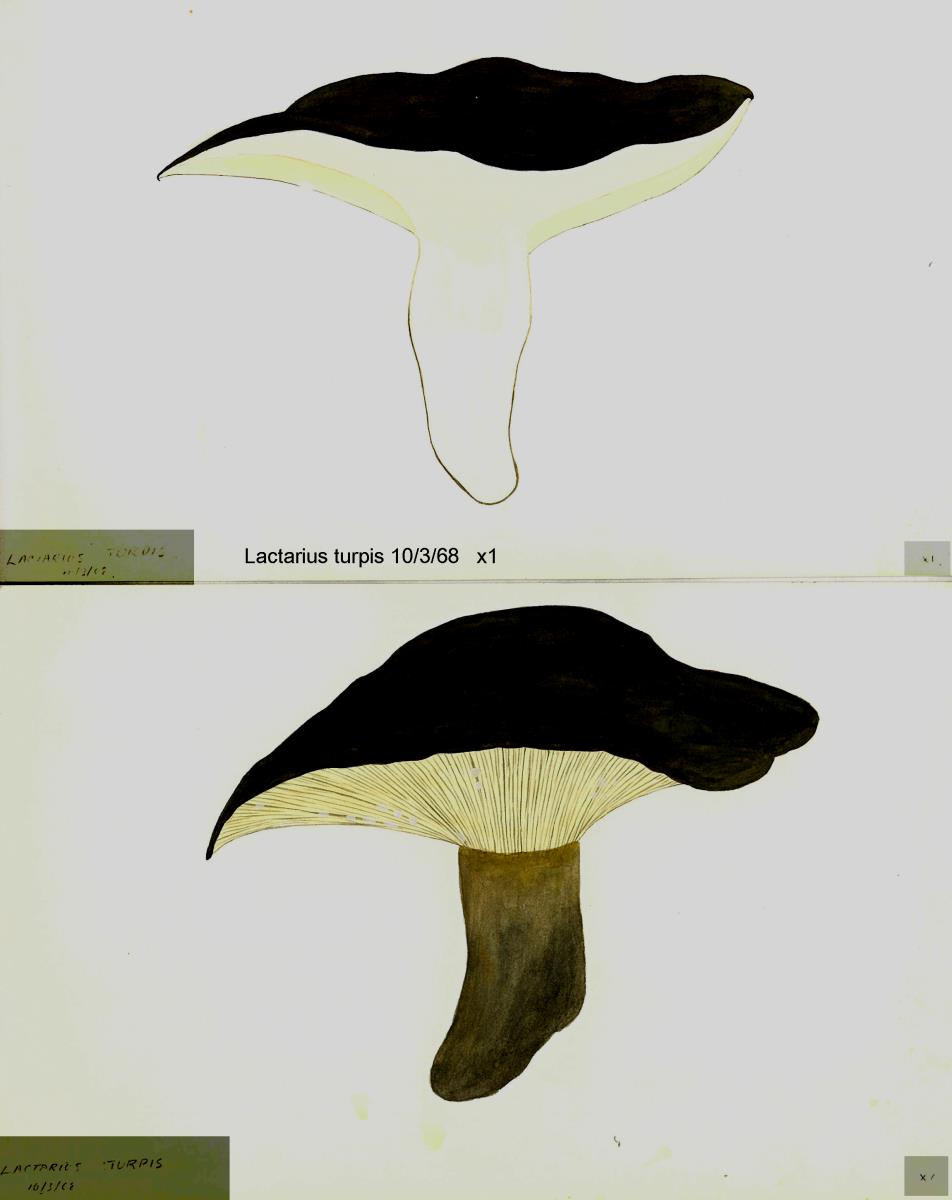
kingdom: Fungi
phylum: Basidiomycota
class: Agaricomycetes
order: Russulales
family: Russulaceae
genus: Lactarius
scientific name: Lactarius turpis
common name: Ugly milk-cap
